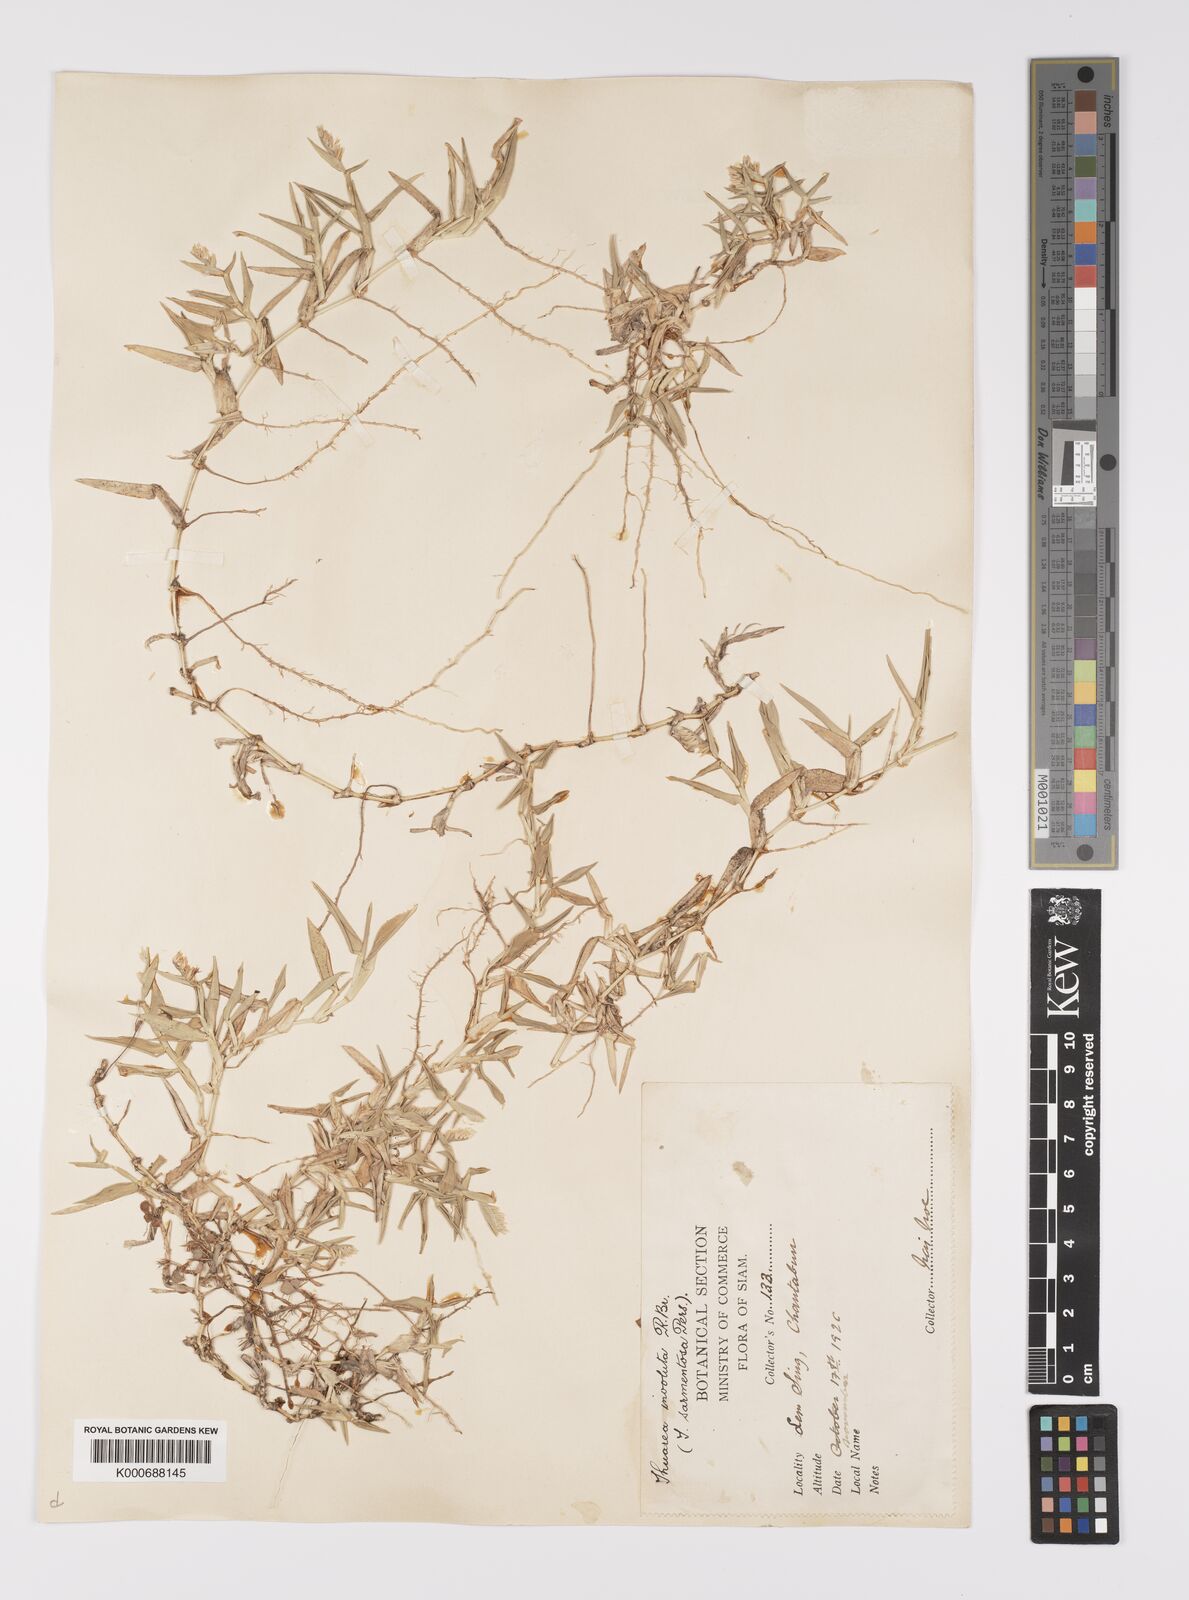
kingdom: Plantae
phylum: Tracheophyta
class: Liliopsida
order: Poales
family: Poaceae
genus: Thuarea
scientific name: Thuarea involuta
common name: Tropical beach grass
